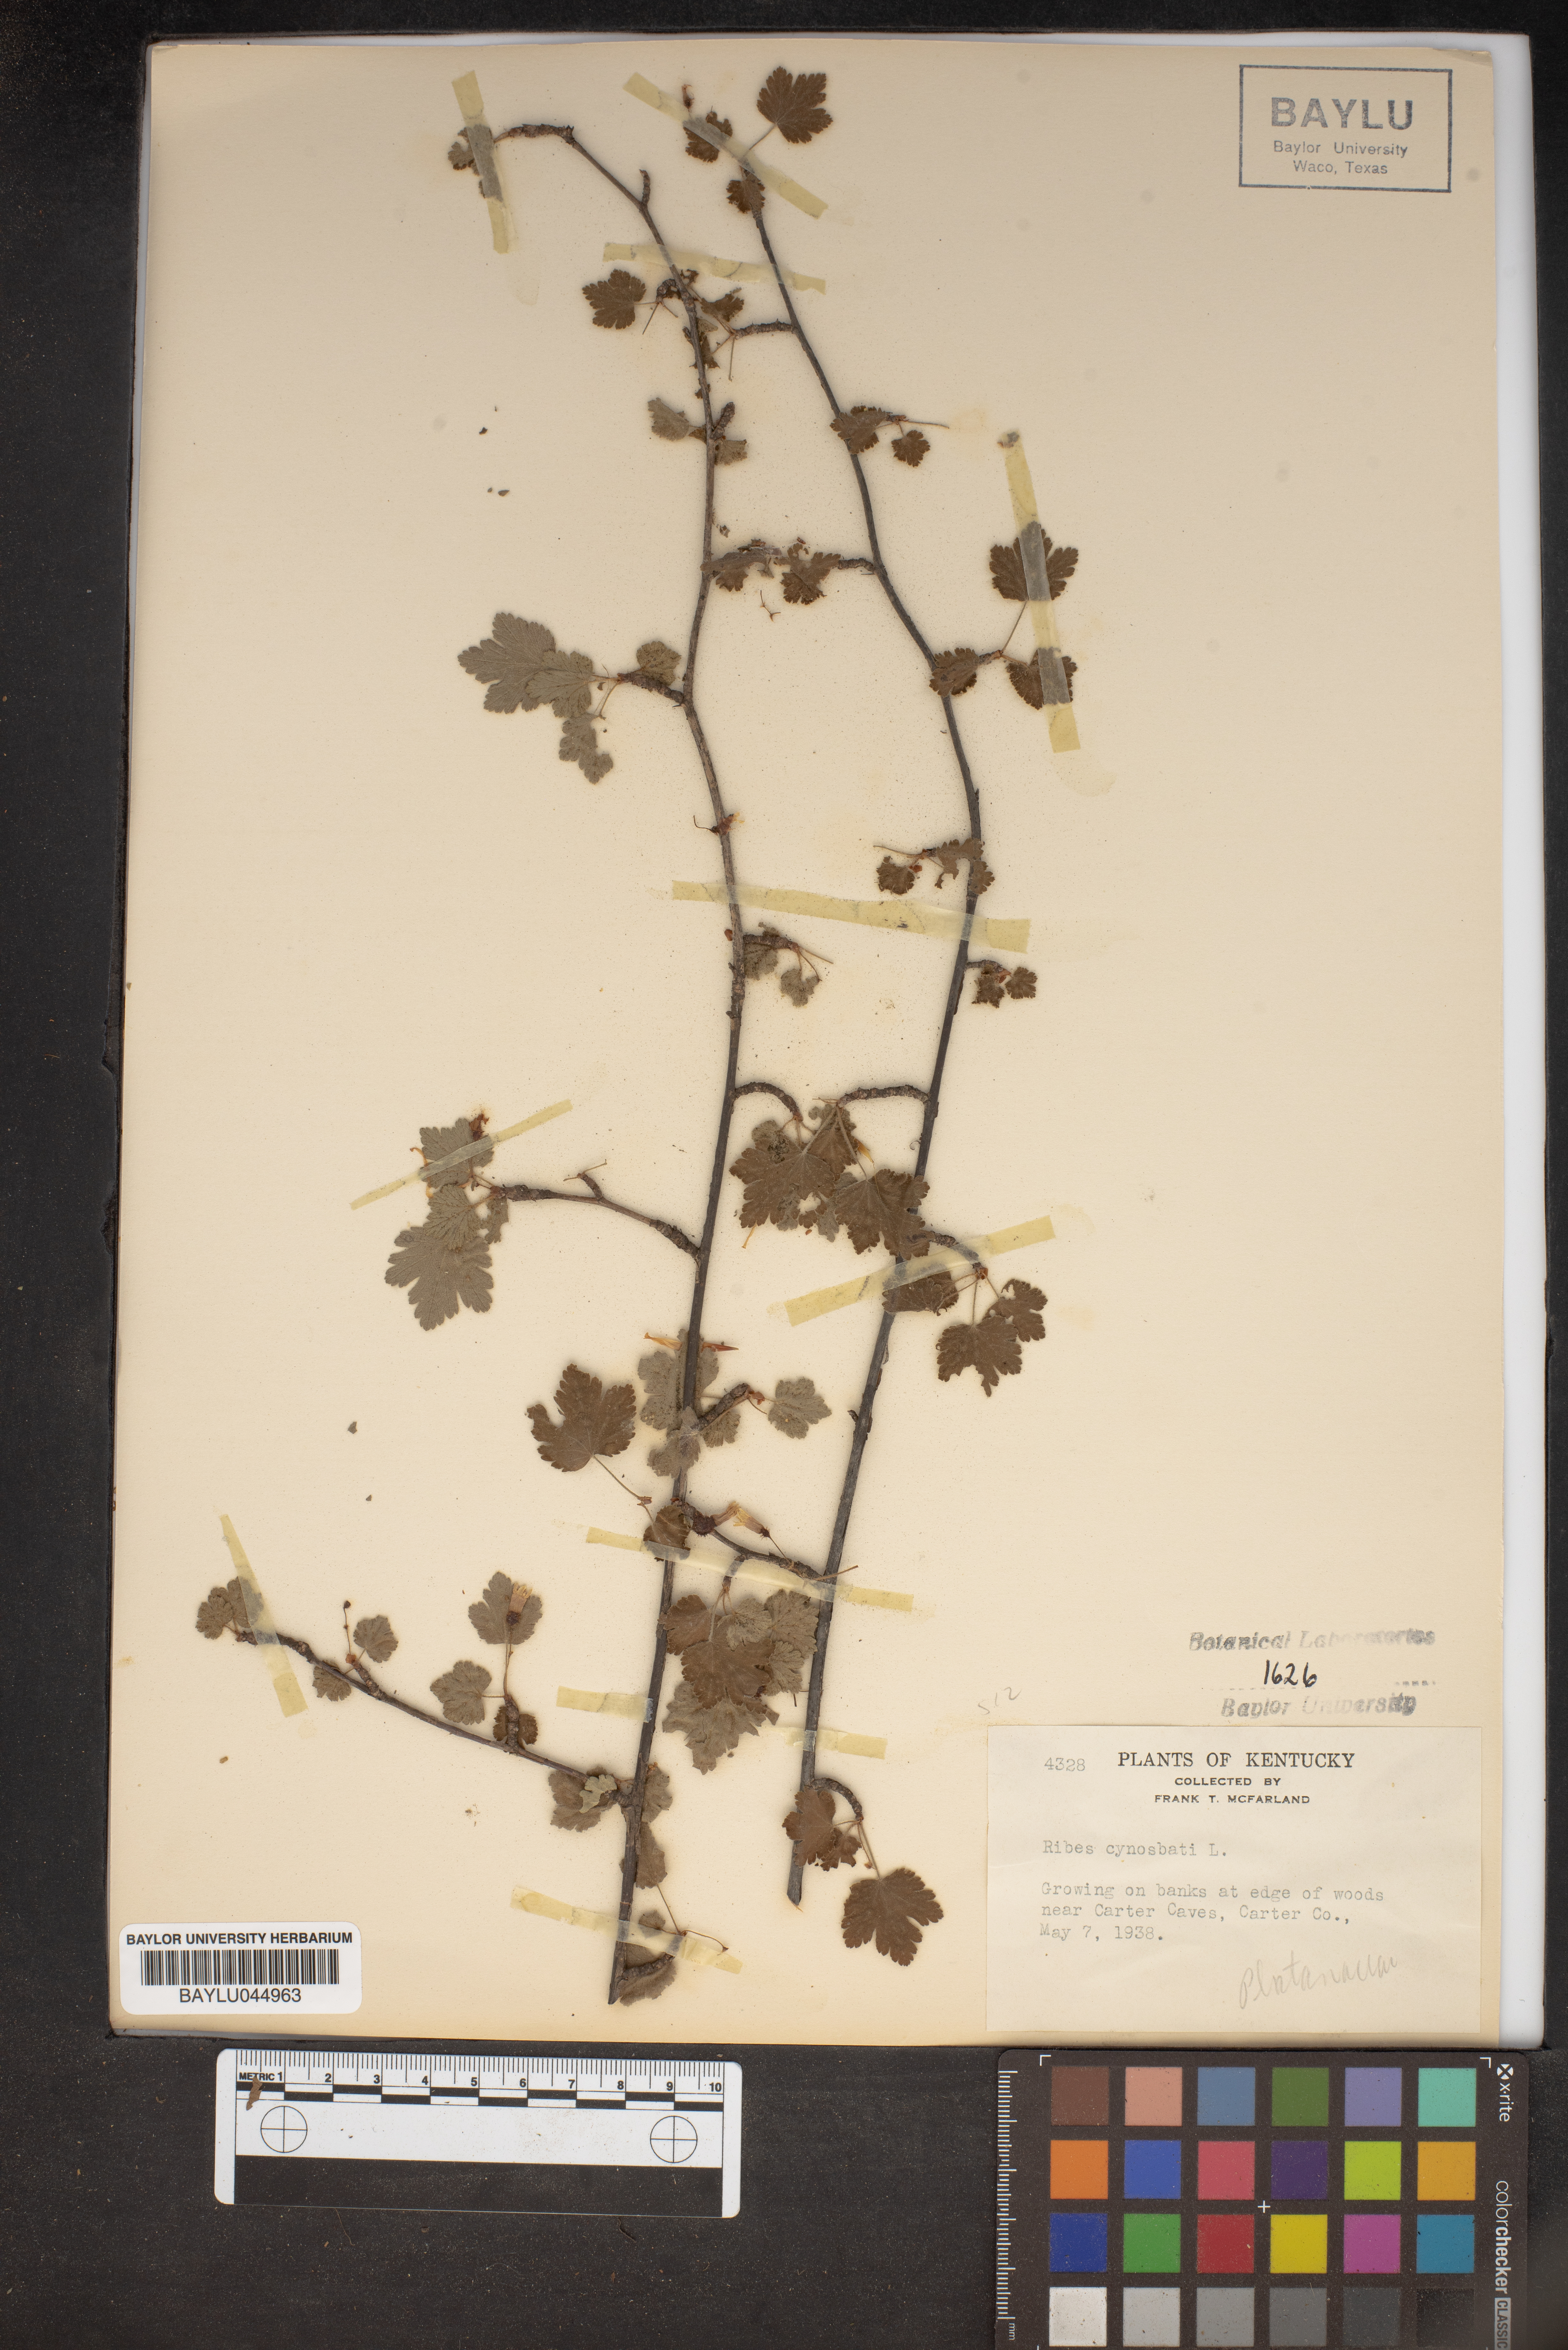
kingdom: Plantae
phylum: Tracheophyta
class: Magnoliopsida
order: Saxifragales
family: Grossulariaceae
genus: Ribes
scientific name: Ribes cynosbati
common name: American gooseberry
